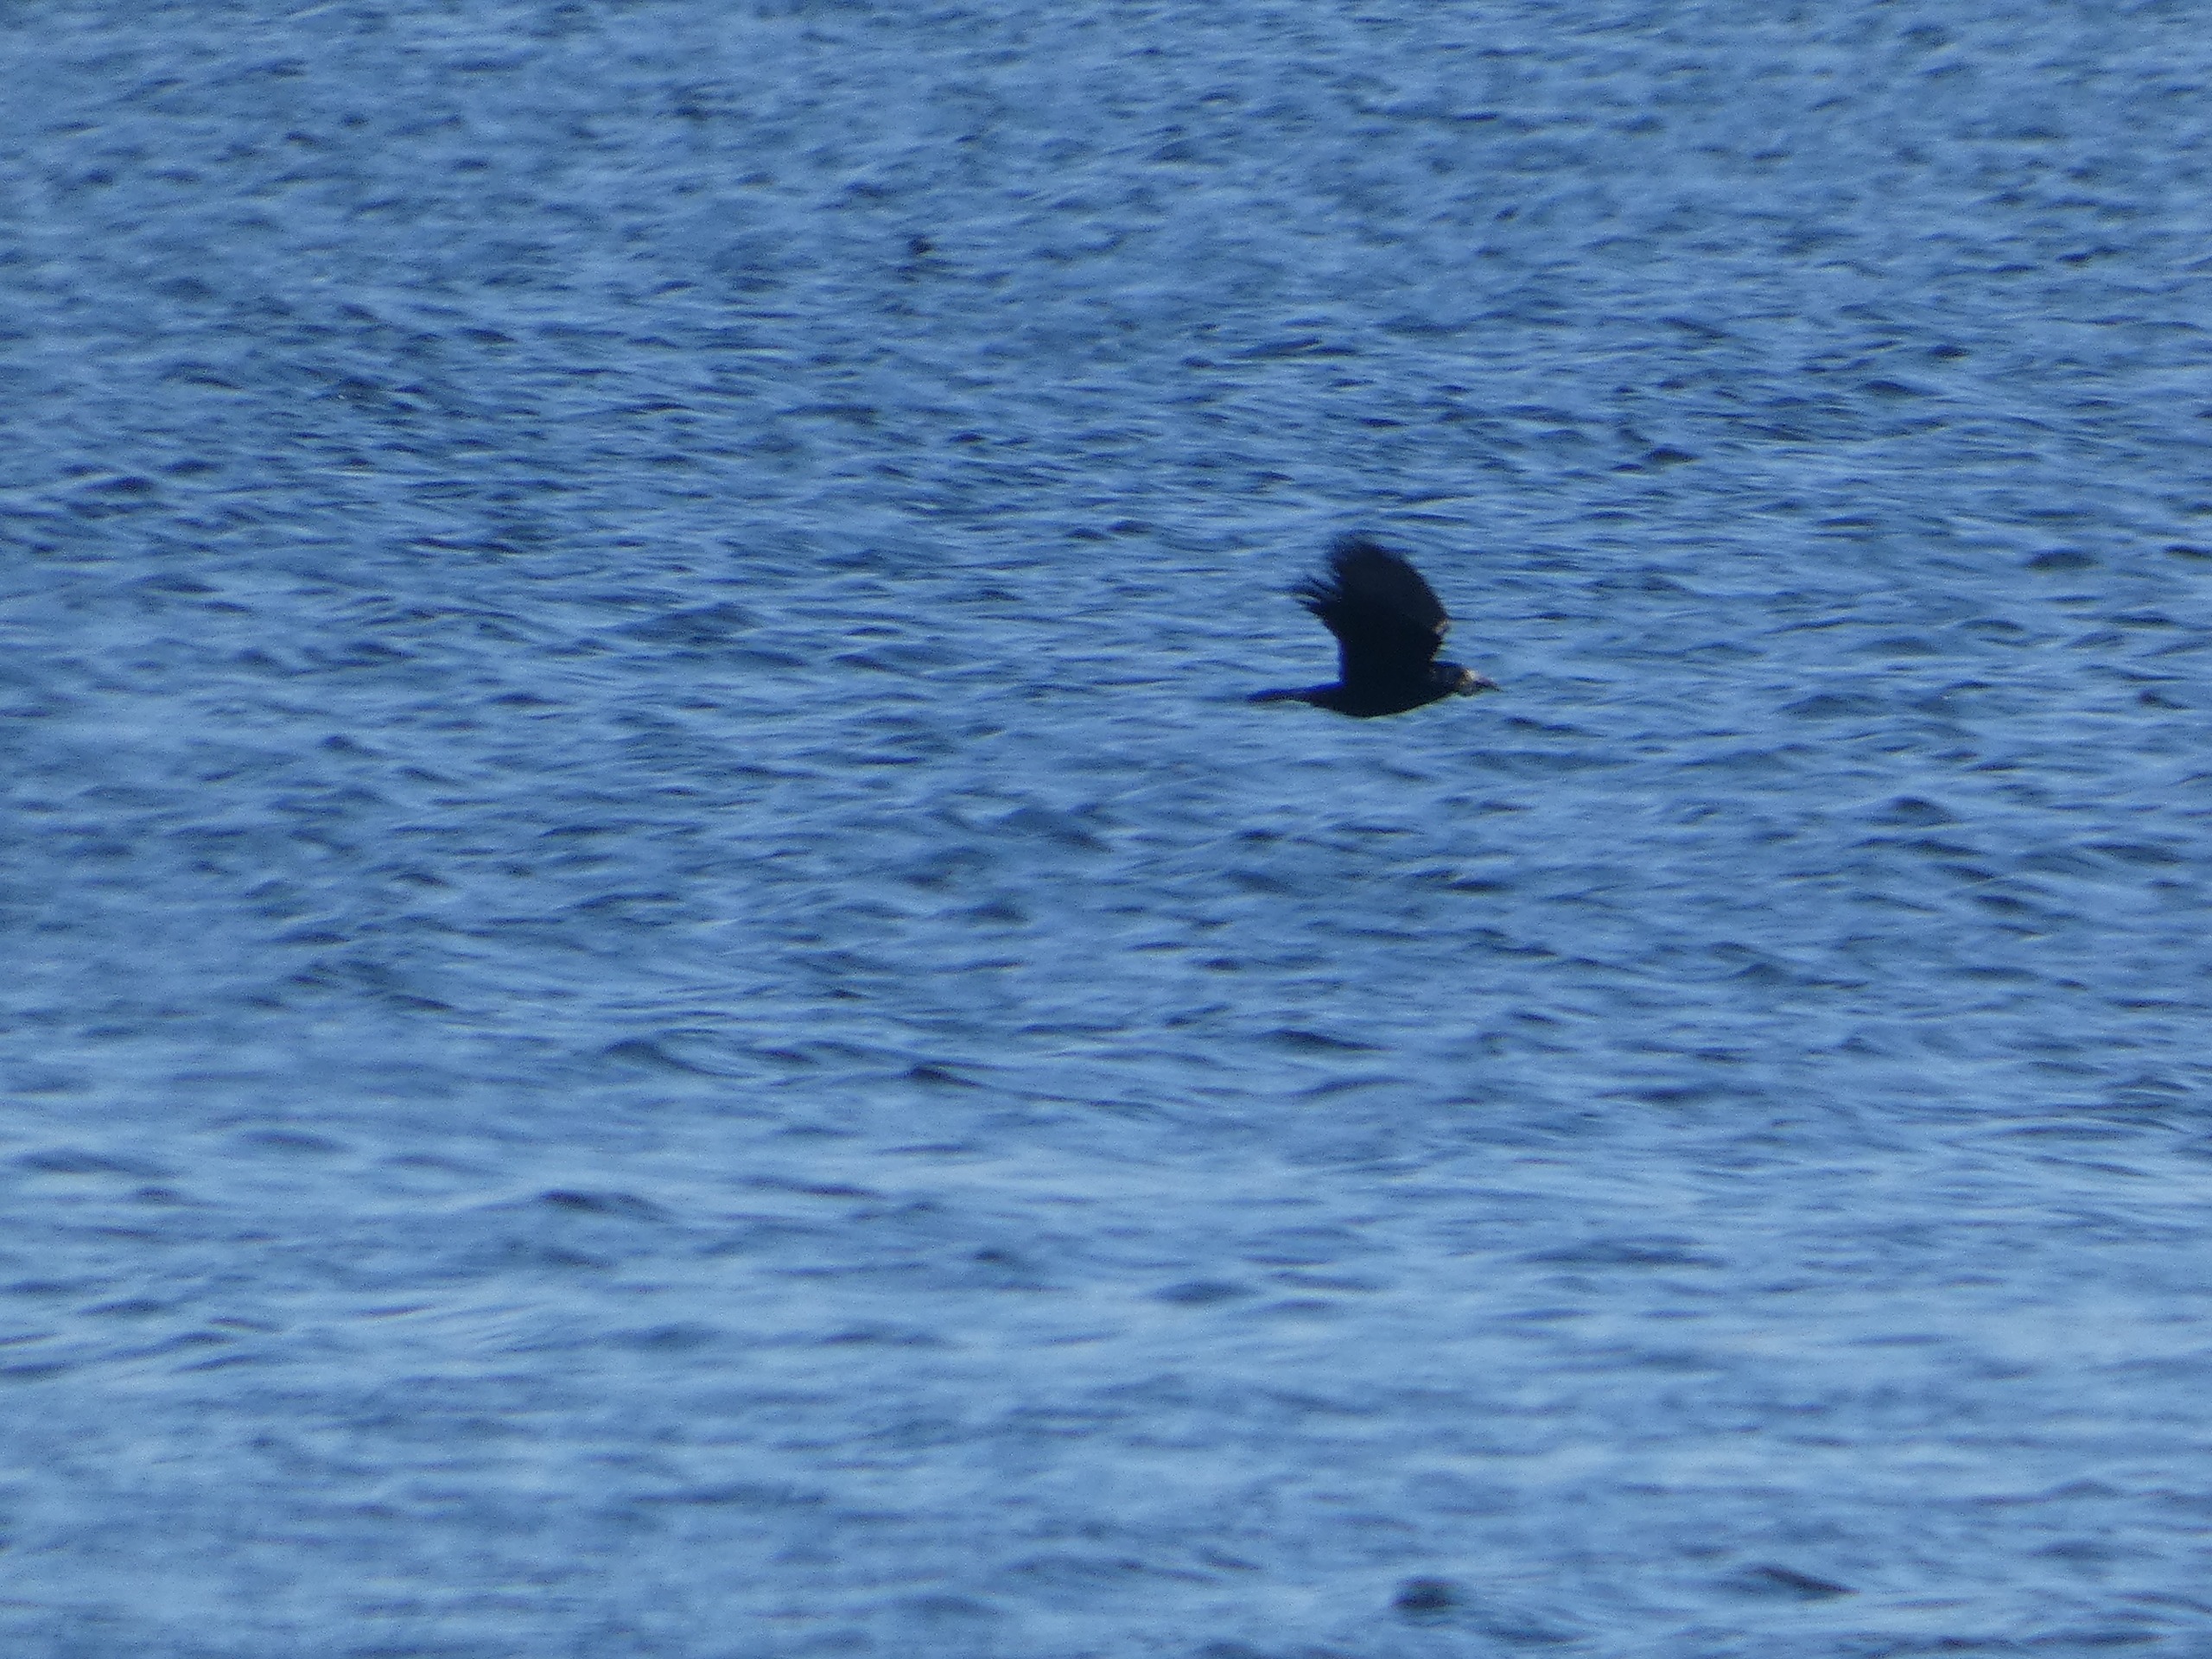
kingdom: Animalia
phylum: Chordata
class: Aves
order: Passeriformes
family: Corvidae
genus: Corvus
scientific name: Corvus frugilegus
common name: Råge
